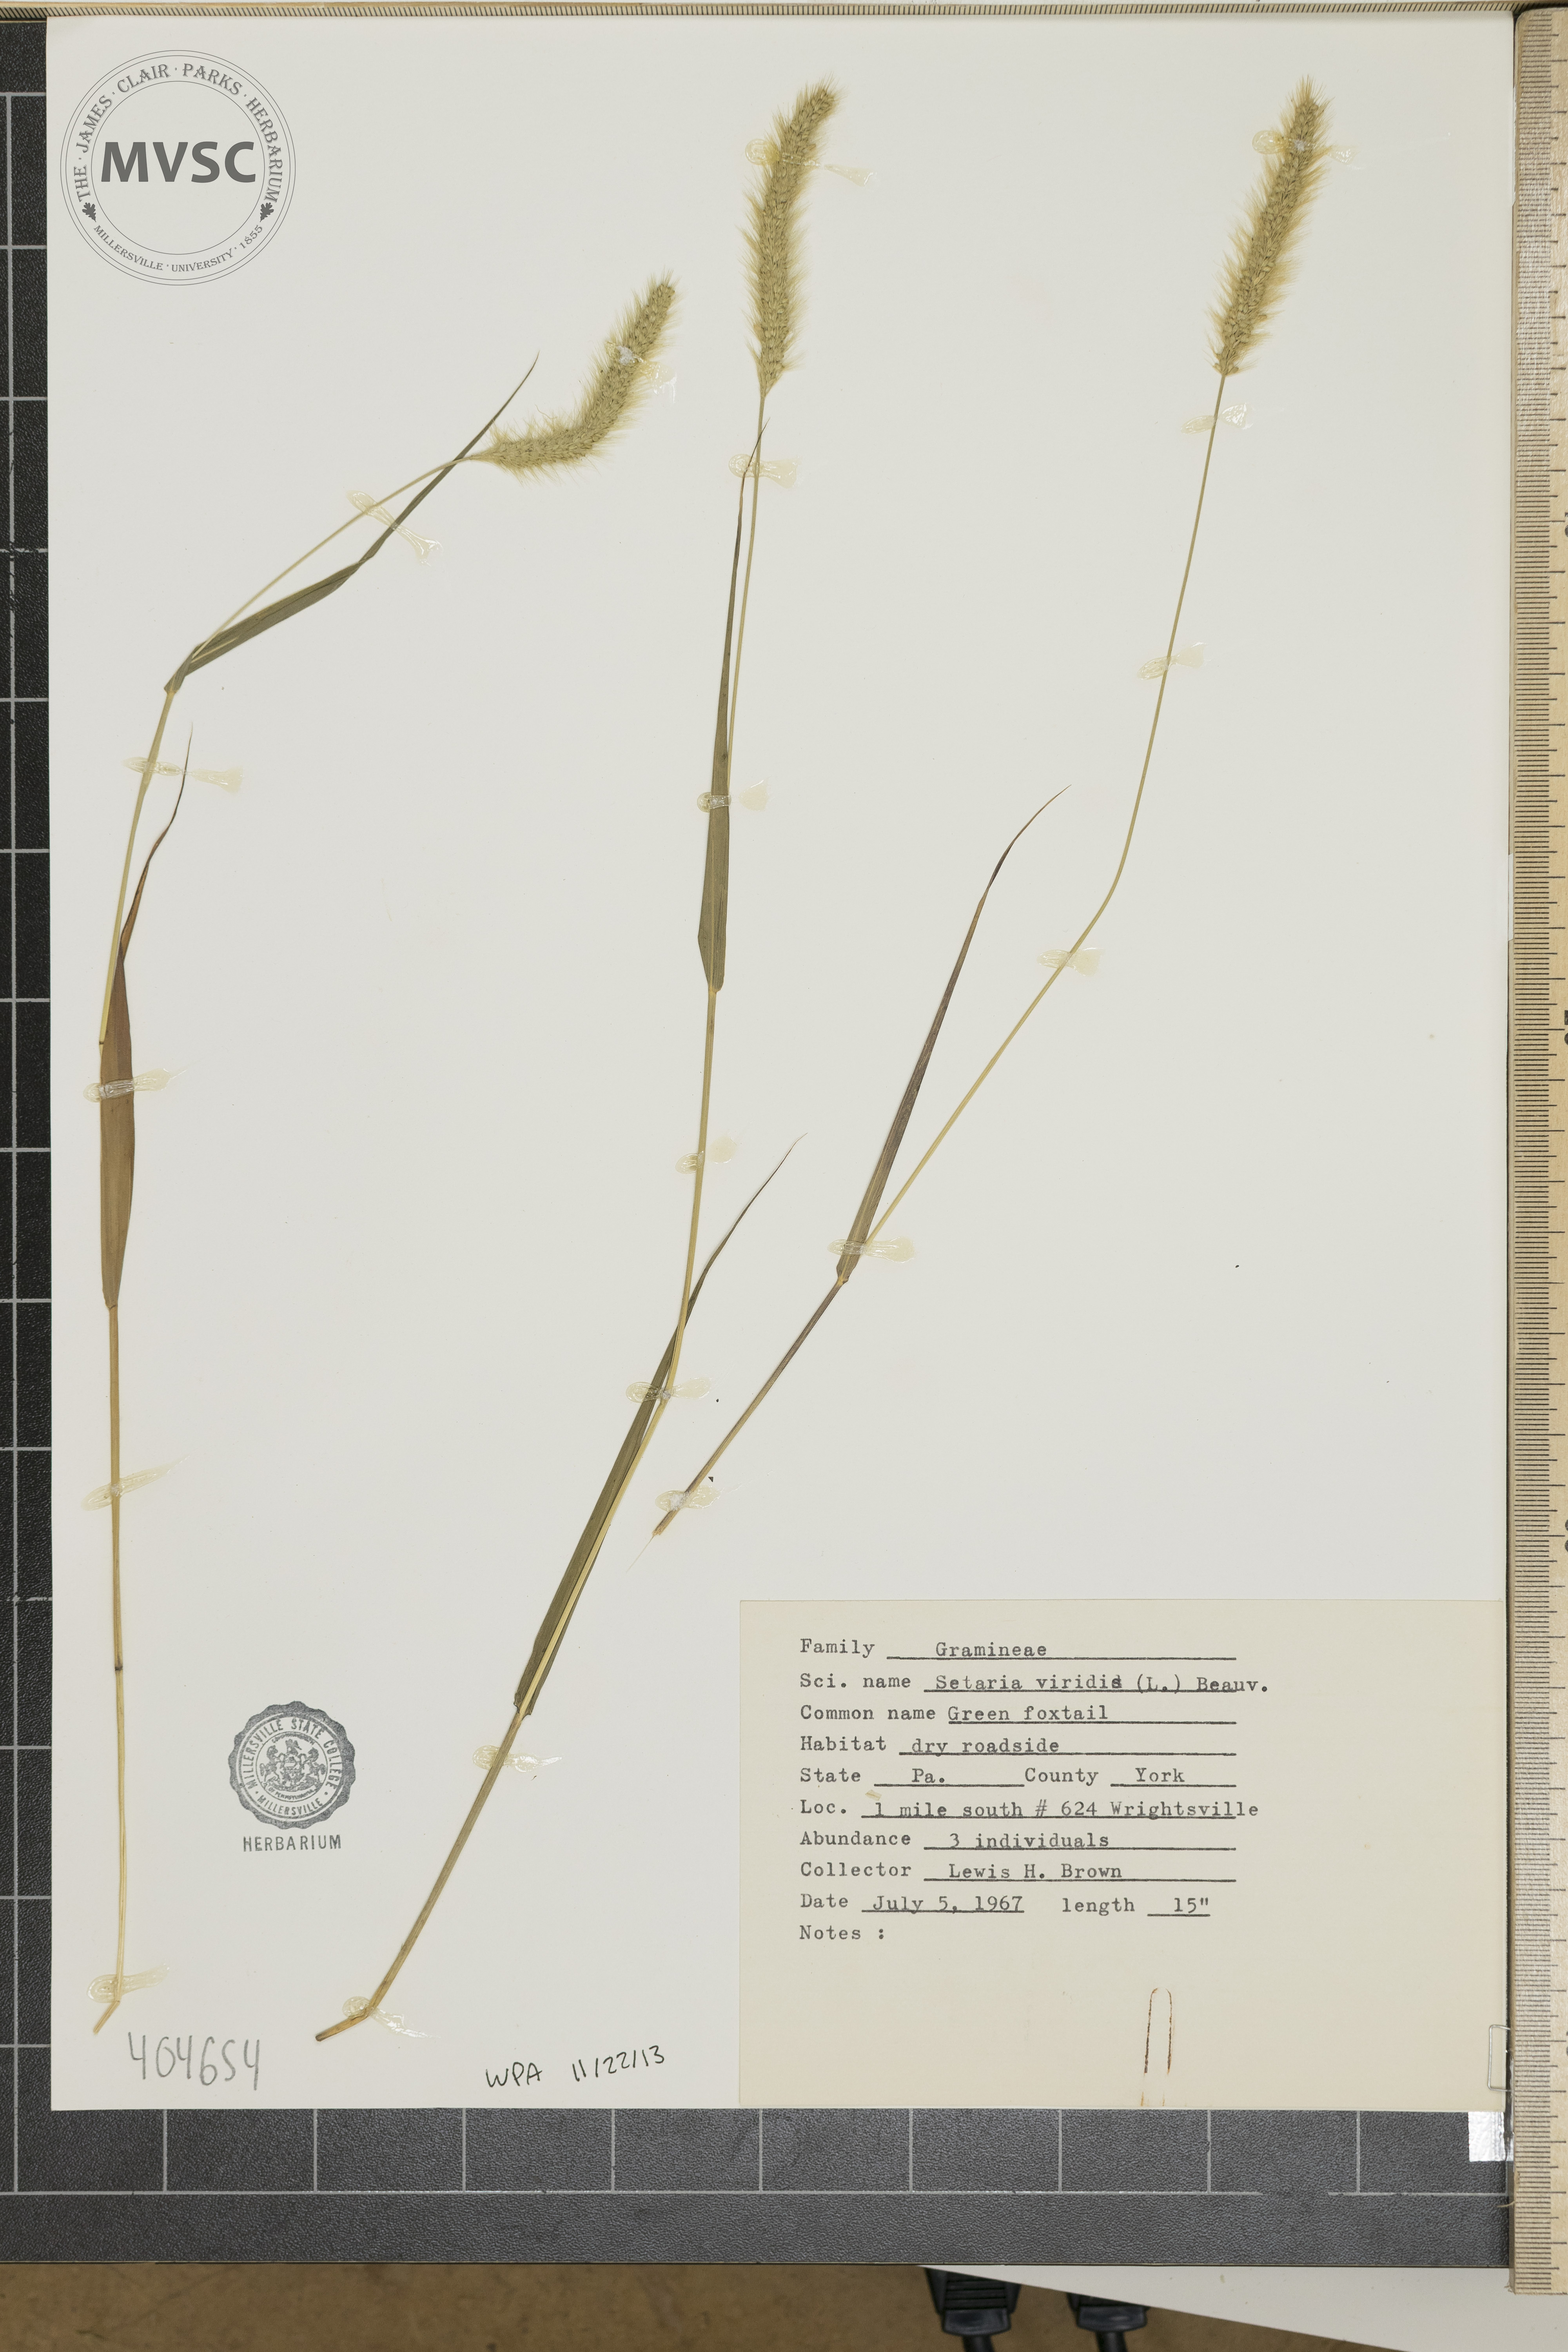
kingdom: Plantae
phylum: Tracheophyta
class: Liliopsida
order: Poales
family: Poaceae
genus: Setaria
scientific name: Setaria viridis
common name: Green Foxtail
